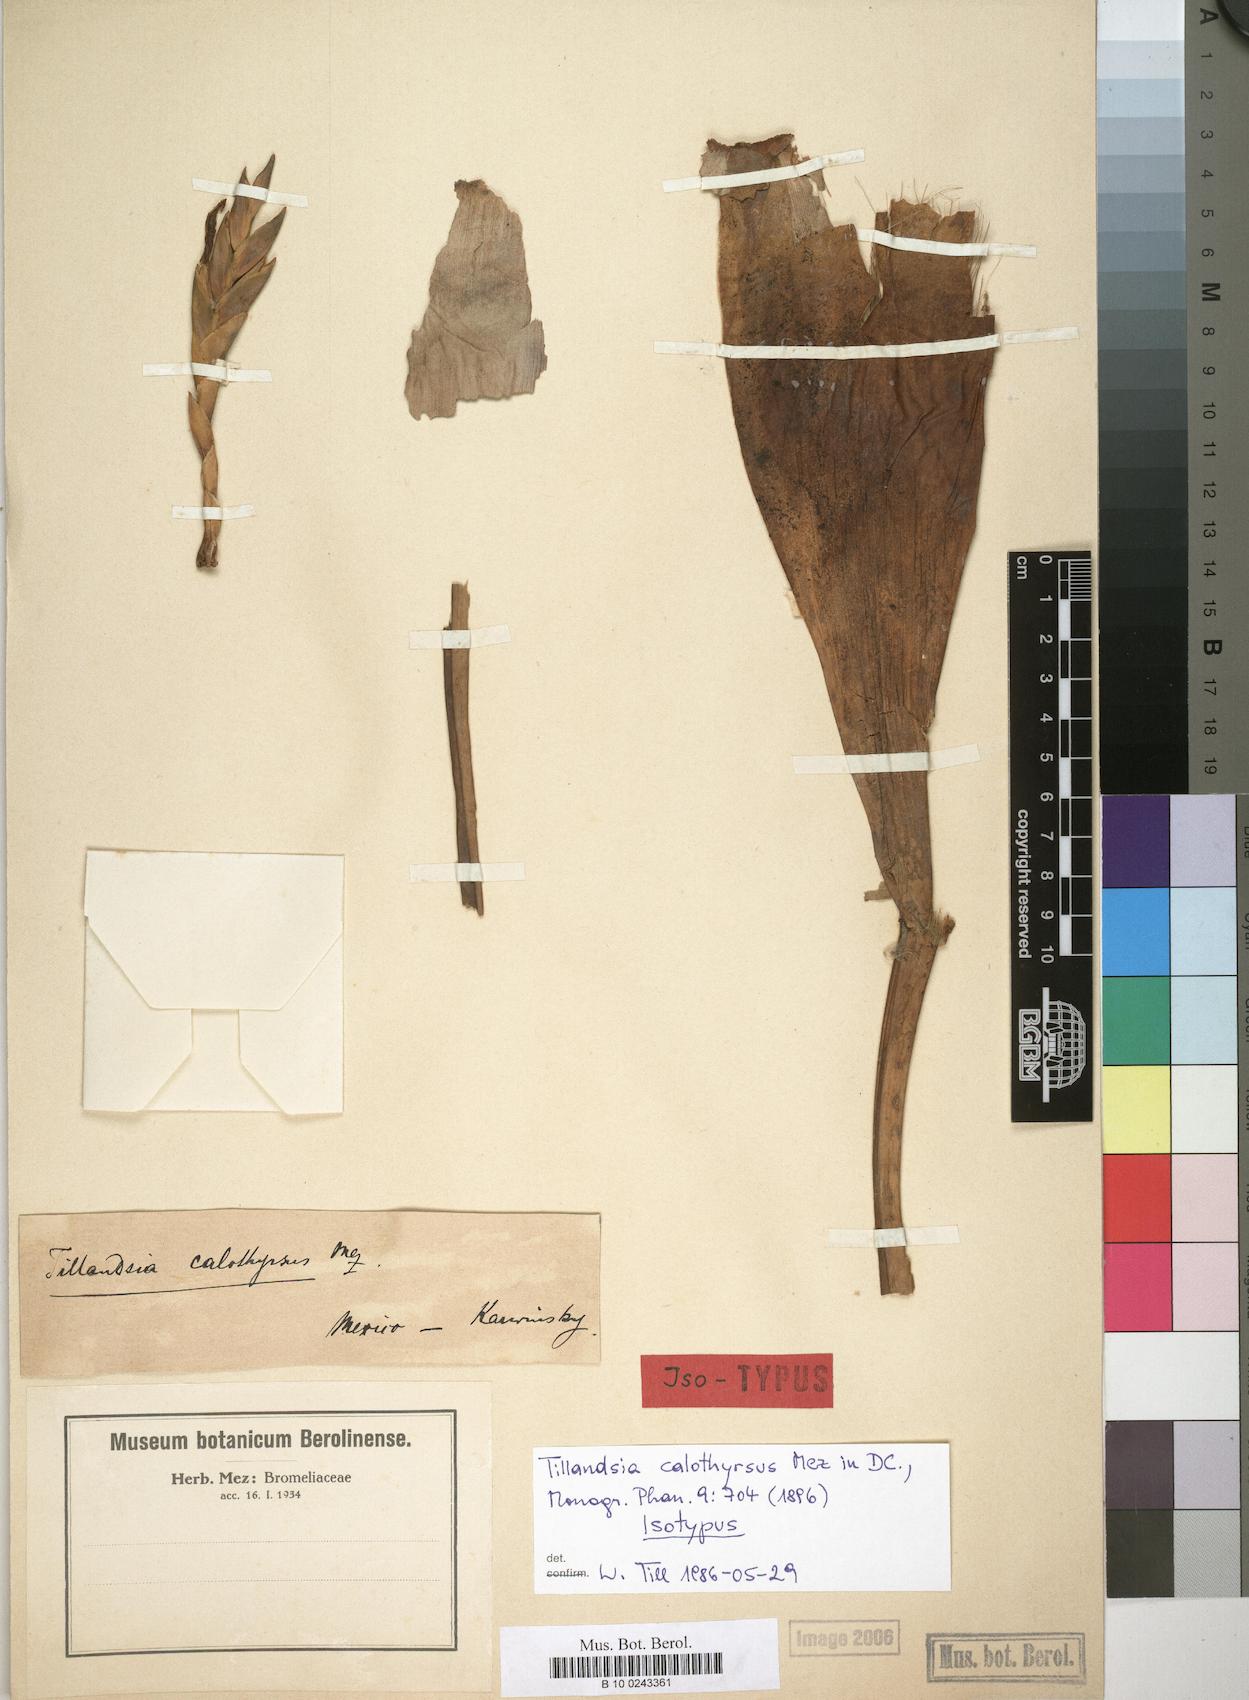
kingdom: Plantae
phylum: Tracheophyta
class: Liliopsida
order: Poales
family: Bromeliaceae
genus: Tillandsia
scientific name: Tillandsia calothyrsus
